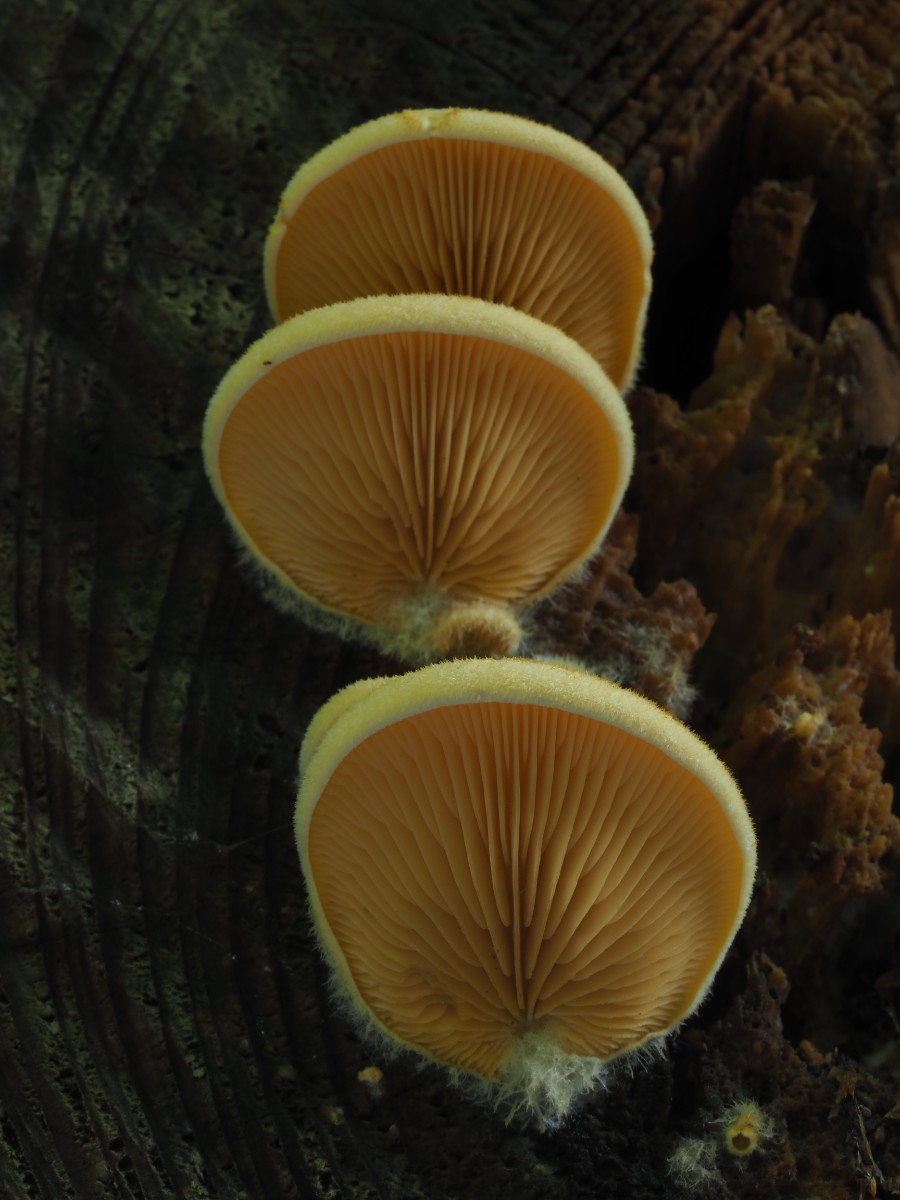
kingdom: Fungi
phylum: Basidiomycota
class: Agaricomycetes
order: Agaricales
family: Phyllotopsidaceae
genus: Phyllotopsis
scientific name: Phyllotopsis nidulans
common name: okkerblad
